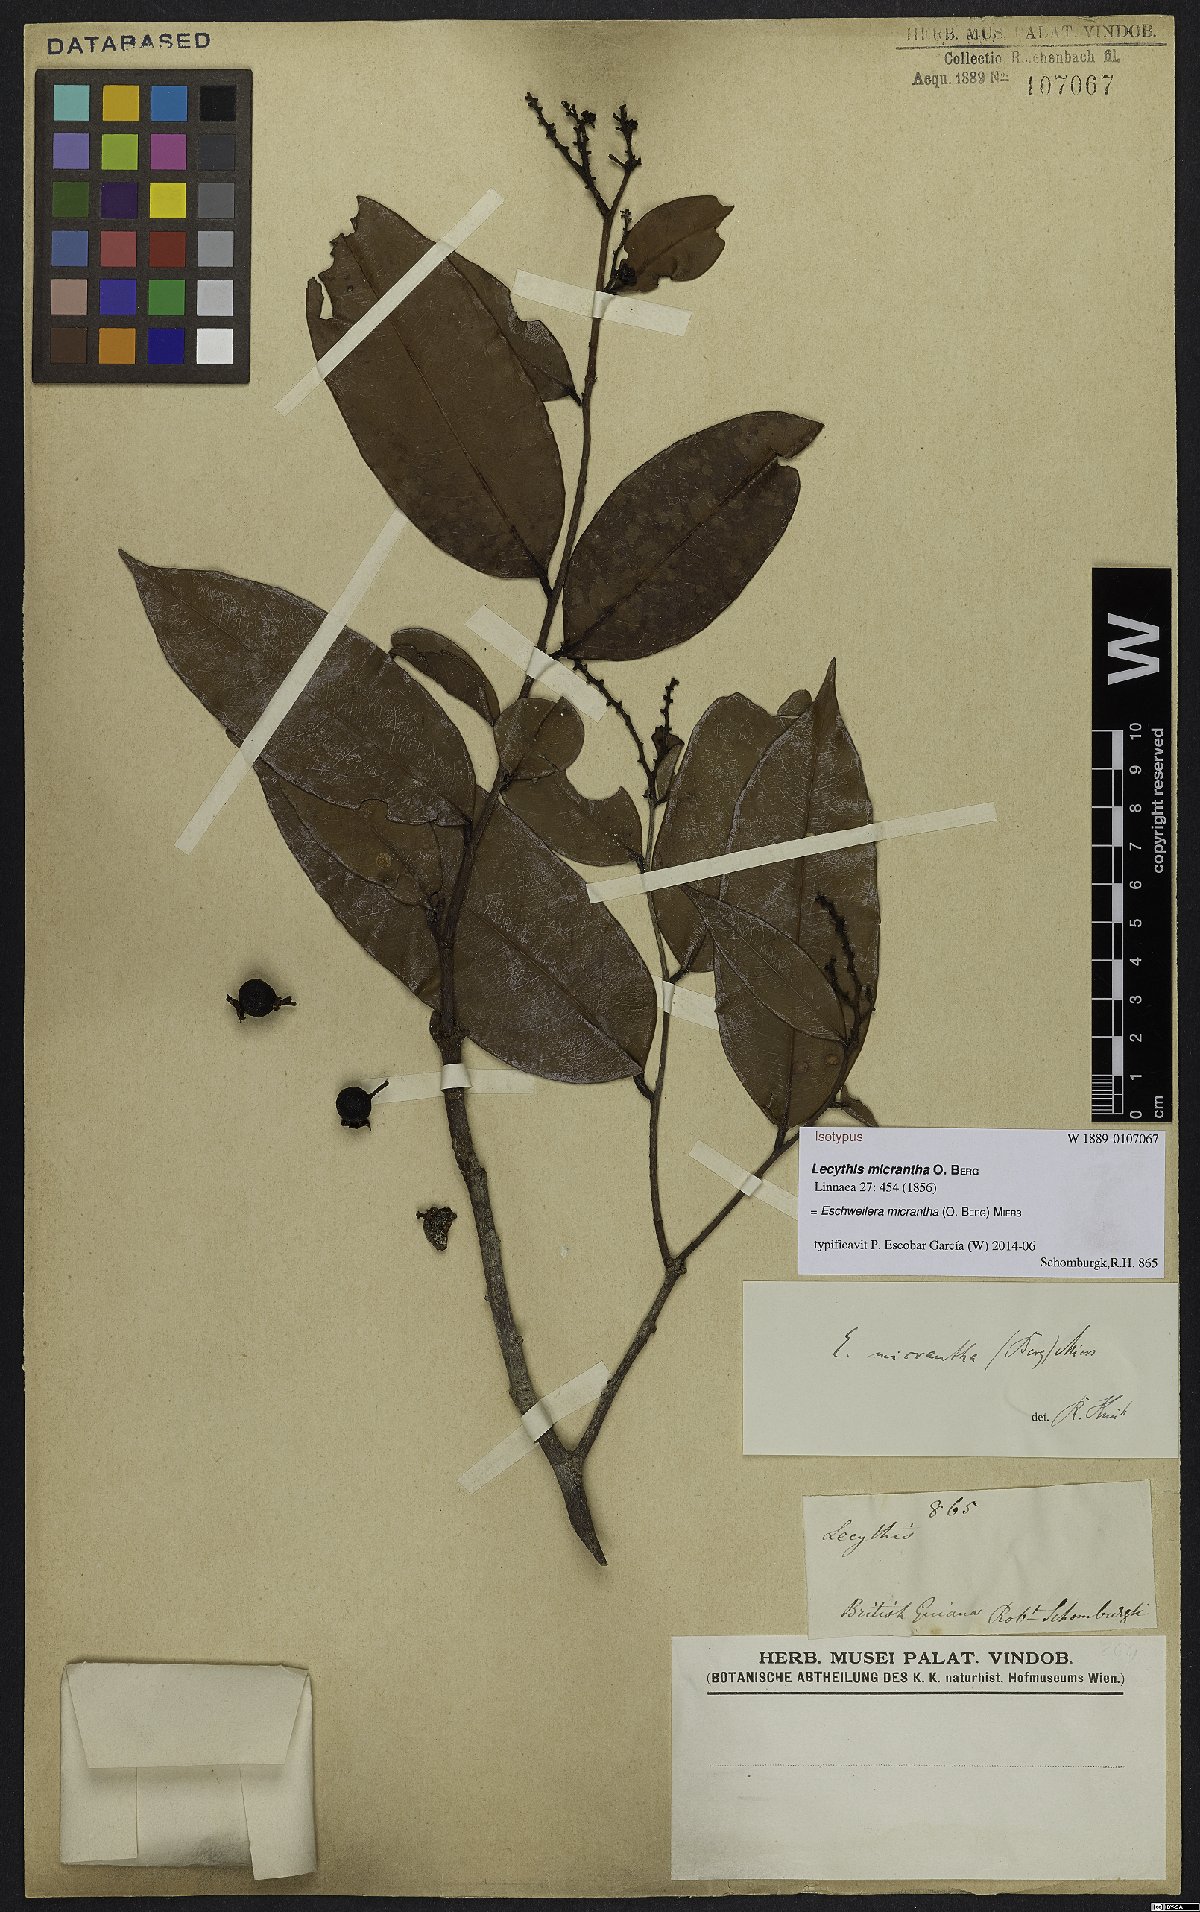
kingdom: Plantae
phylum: Tracheophyta
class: Magnoliopsida
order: Ericales
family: Lecythidaceae
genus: Eschweilera
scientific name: Eschweilera micrantha
